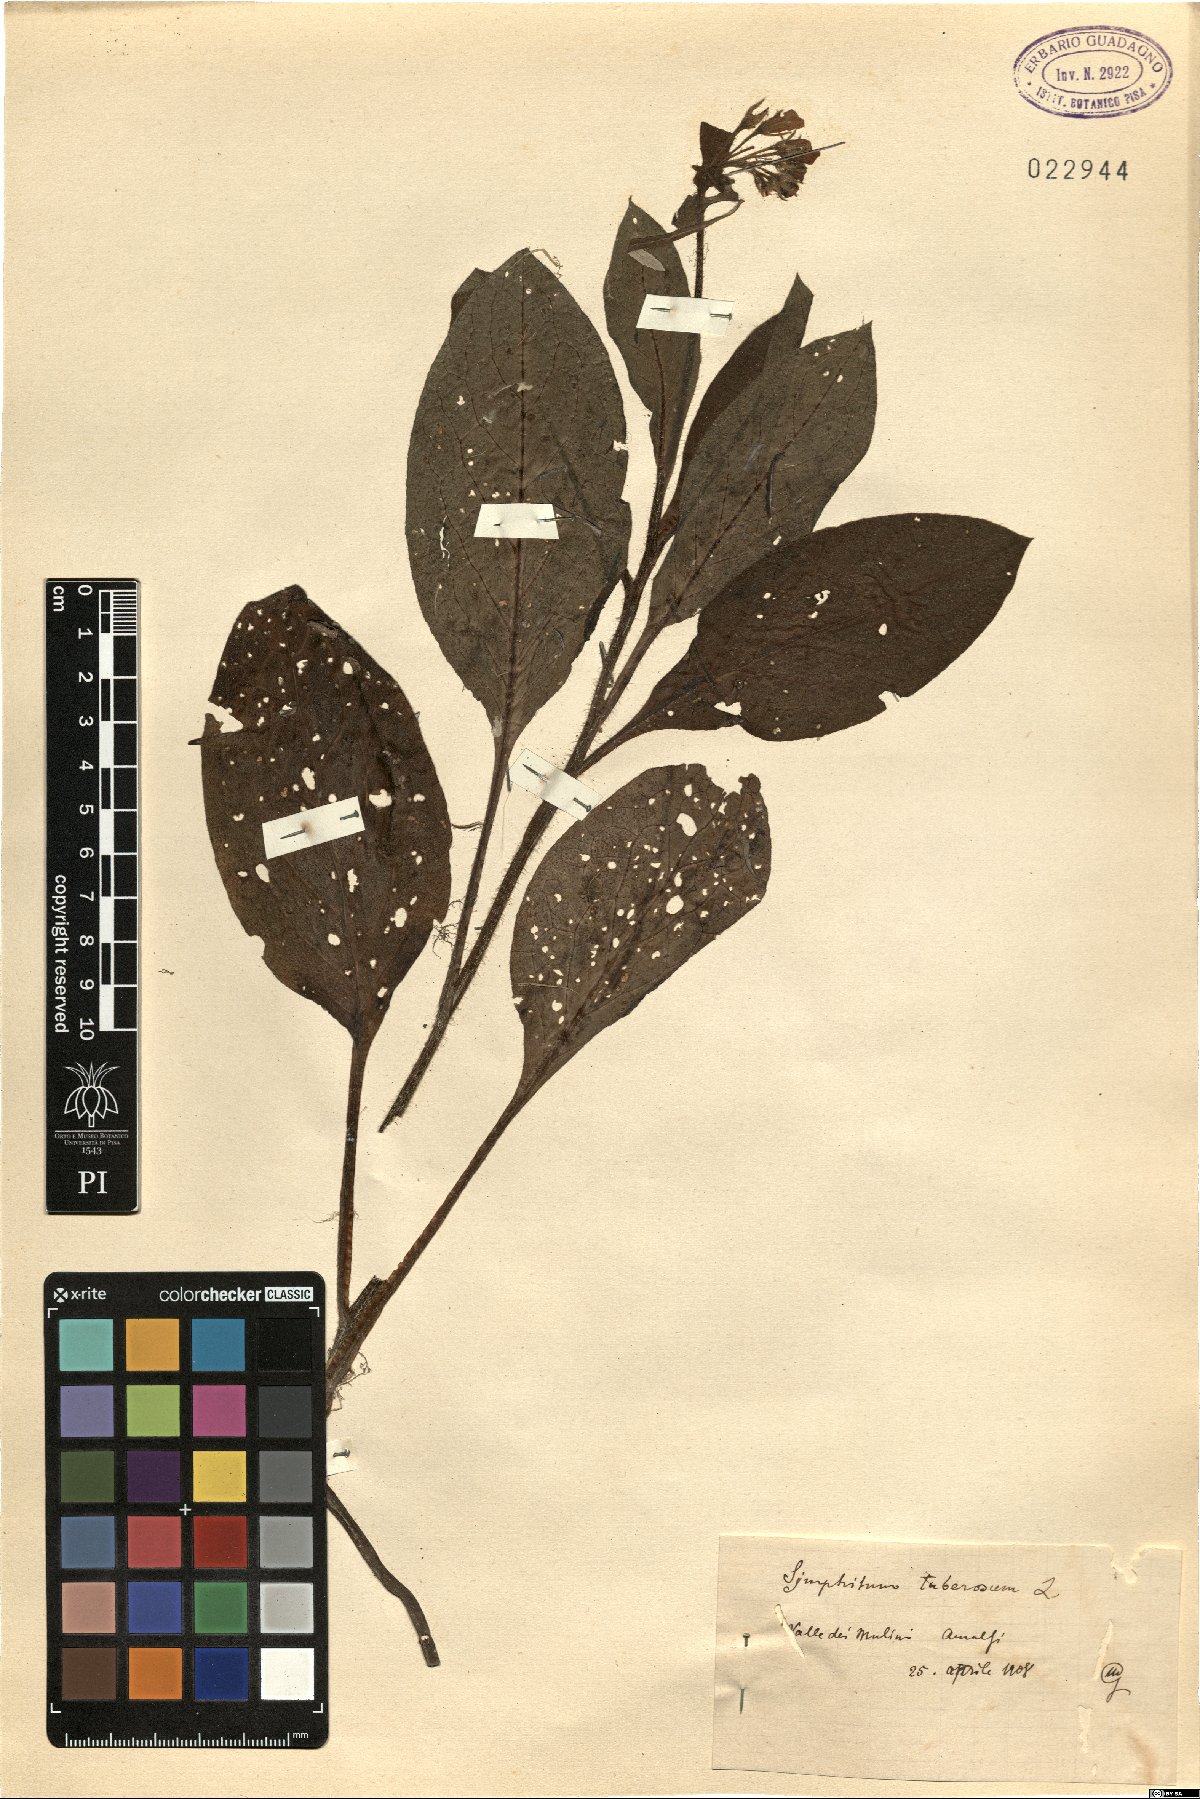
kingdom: Plantae
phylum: Tracheophyta
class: Magnoliopsida
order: Boraginales
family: Boraginaceae
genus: Symphytum
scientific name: Symphytum tuberosum
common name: Tuberous comfrey
